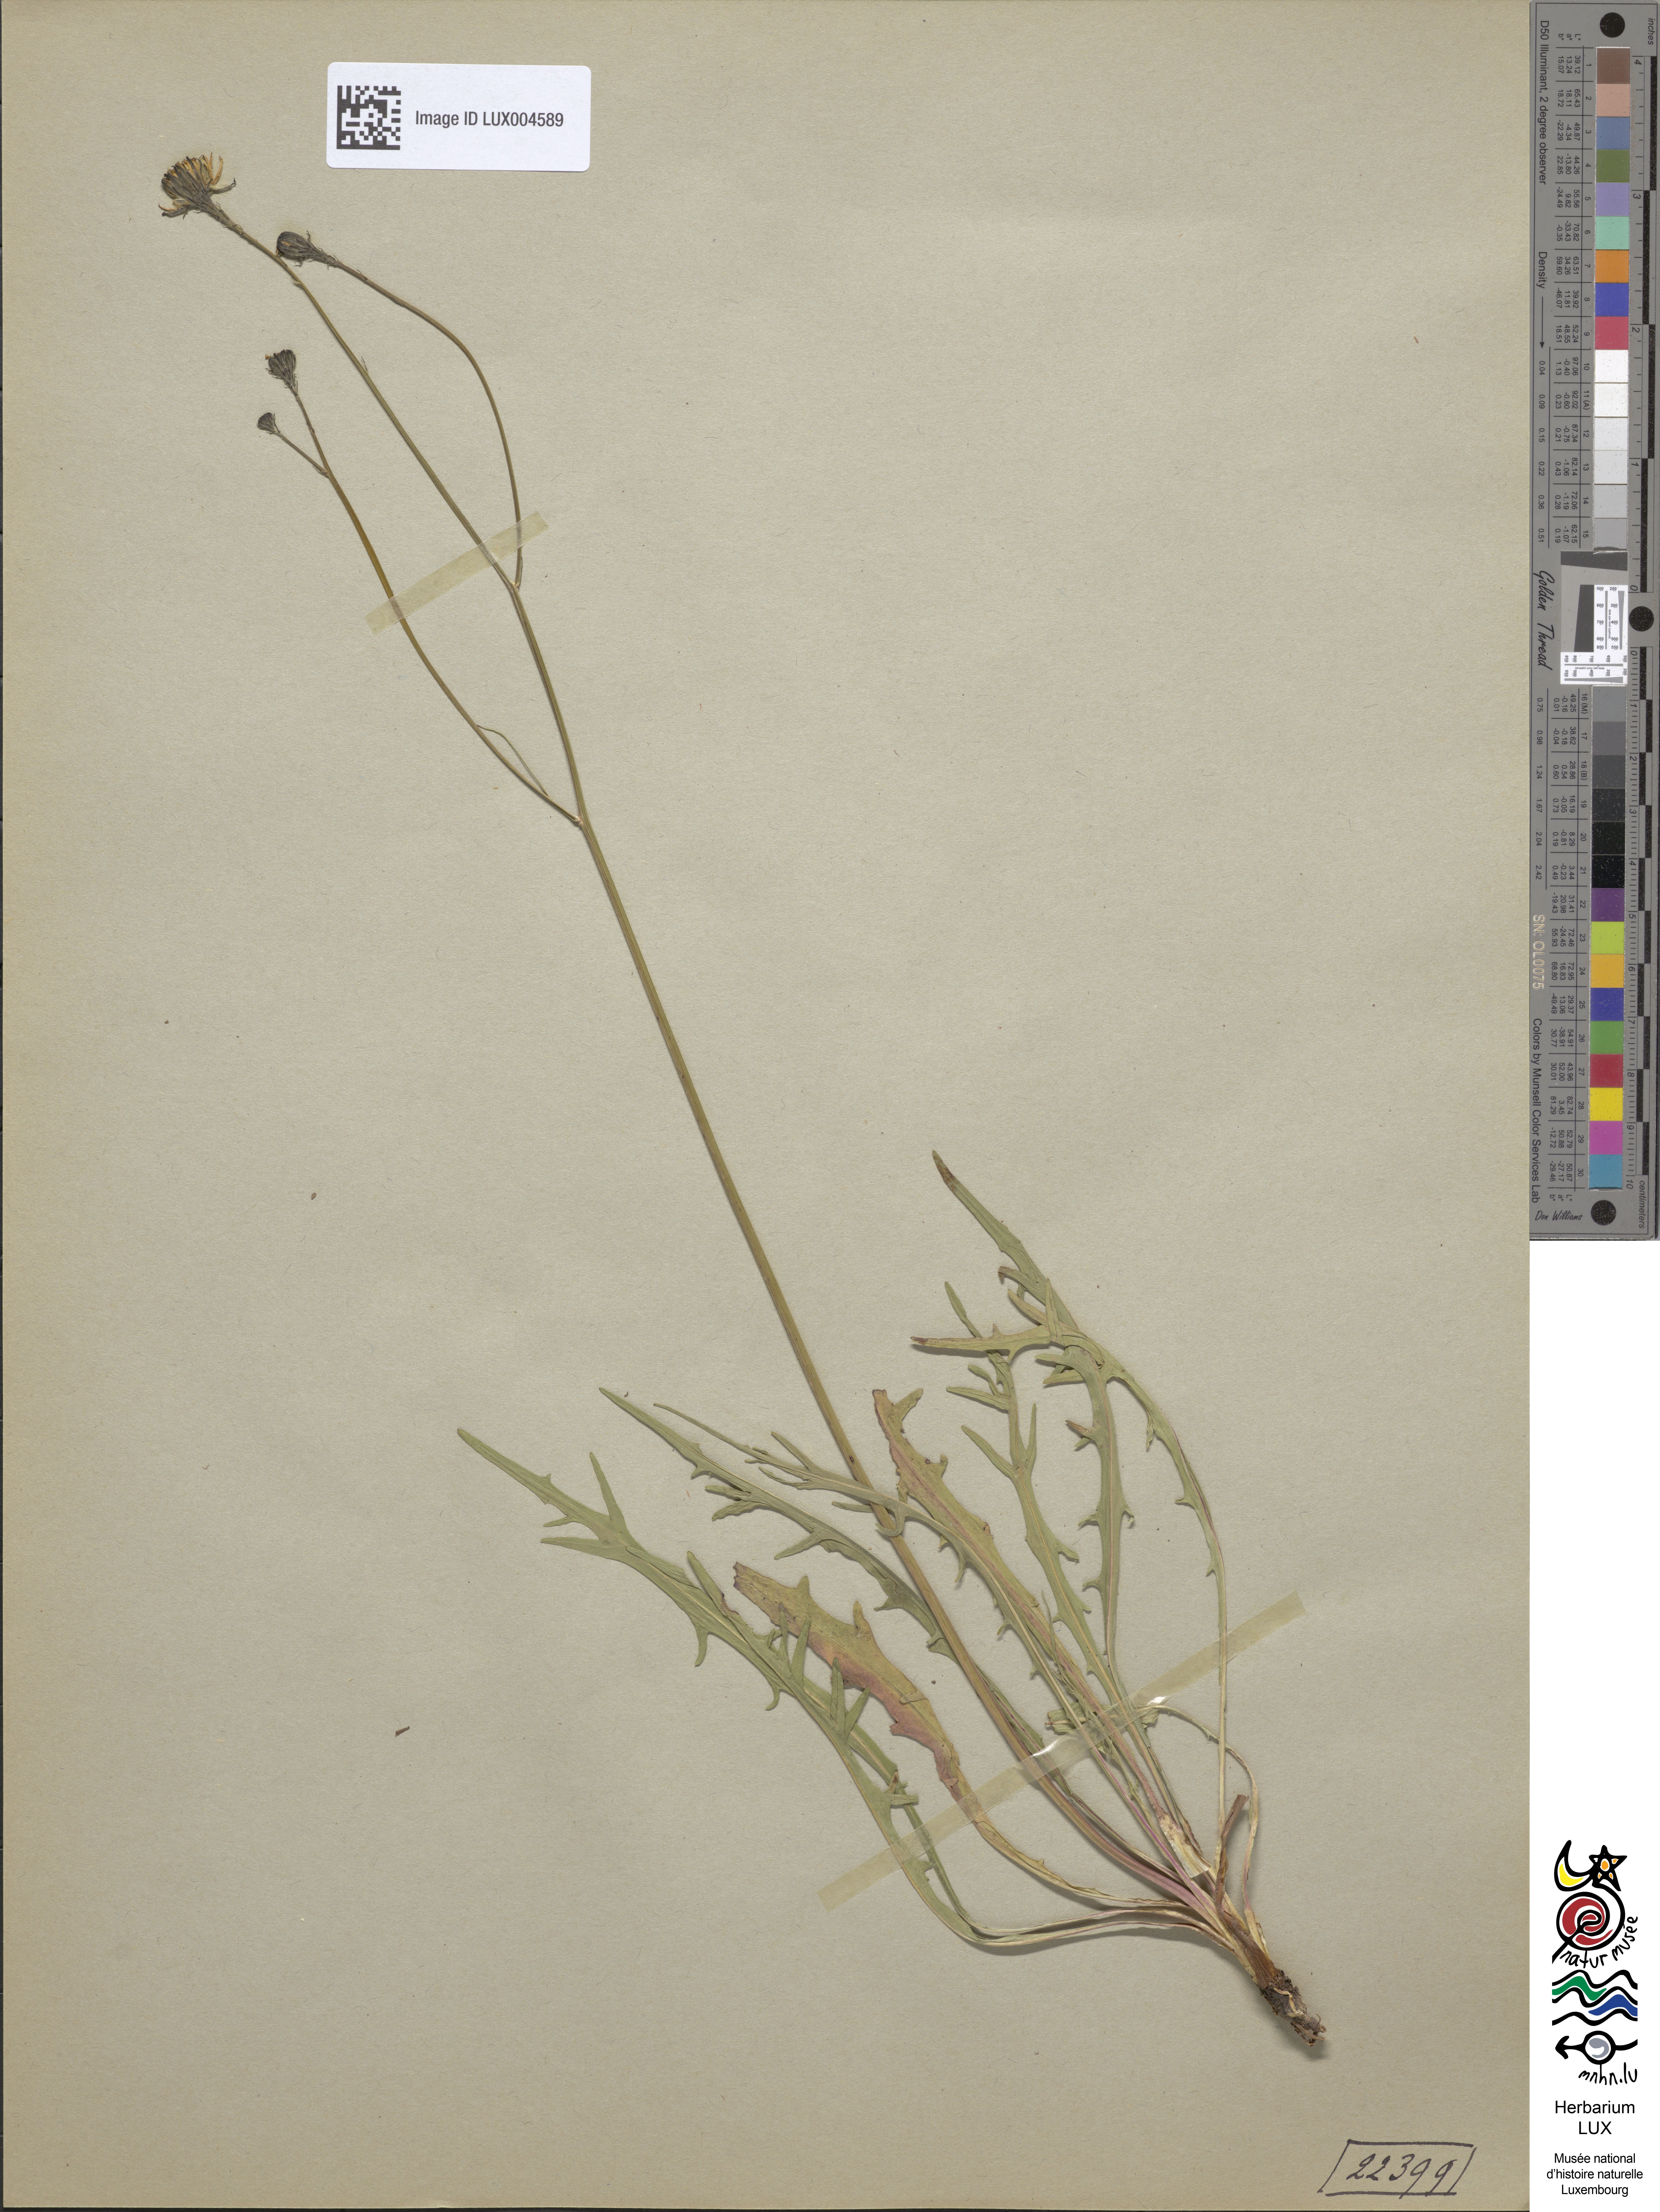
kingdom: Plantae
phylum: Tracheophyta
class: Magnoliopsida
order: Asterales
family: Asteraceae
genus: Scorzoneroides
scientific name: Scorzoneroides autumnalis
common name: Autumn hawkbit
